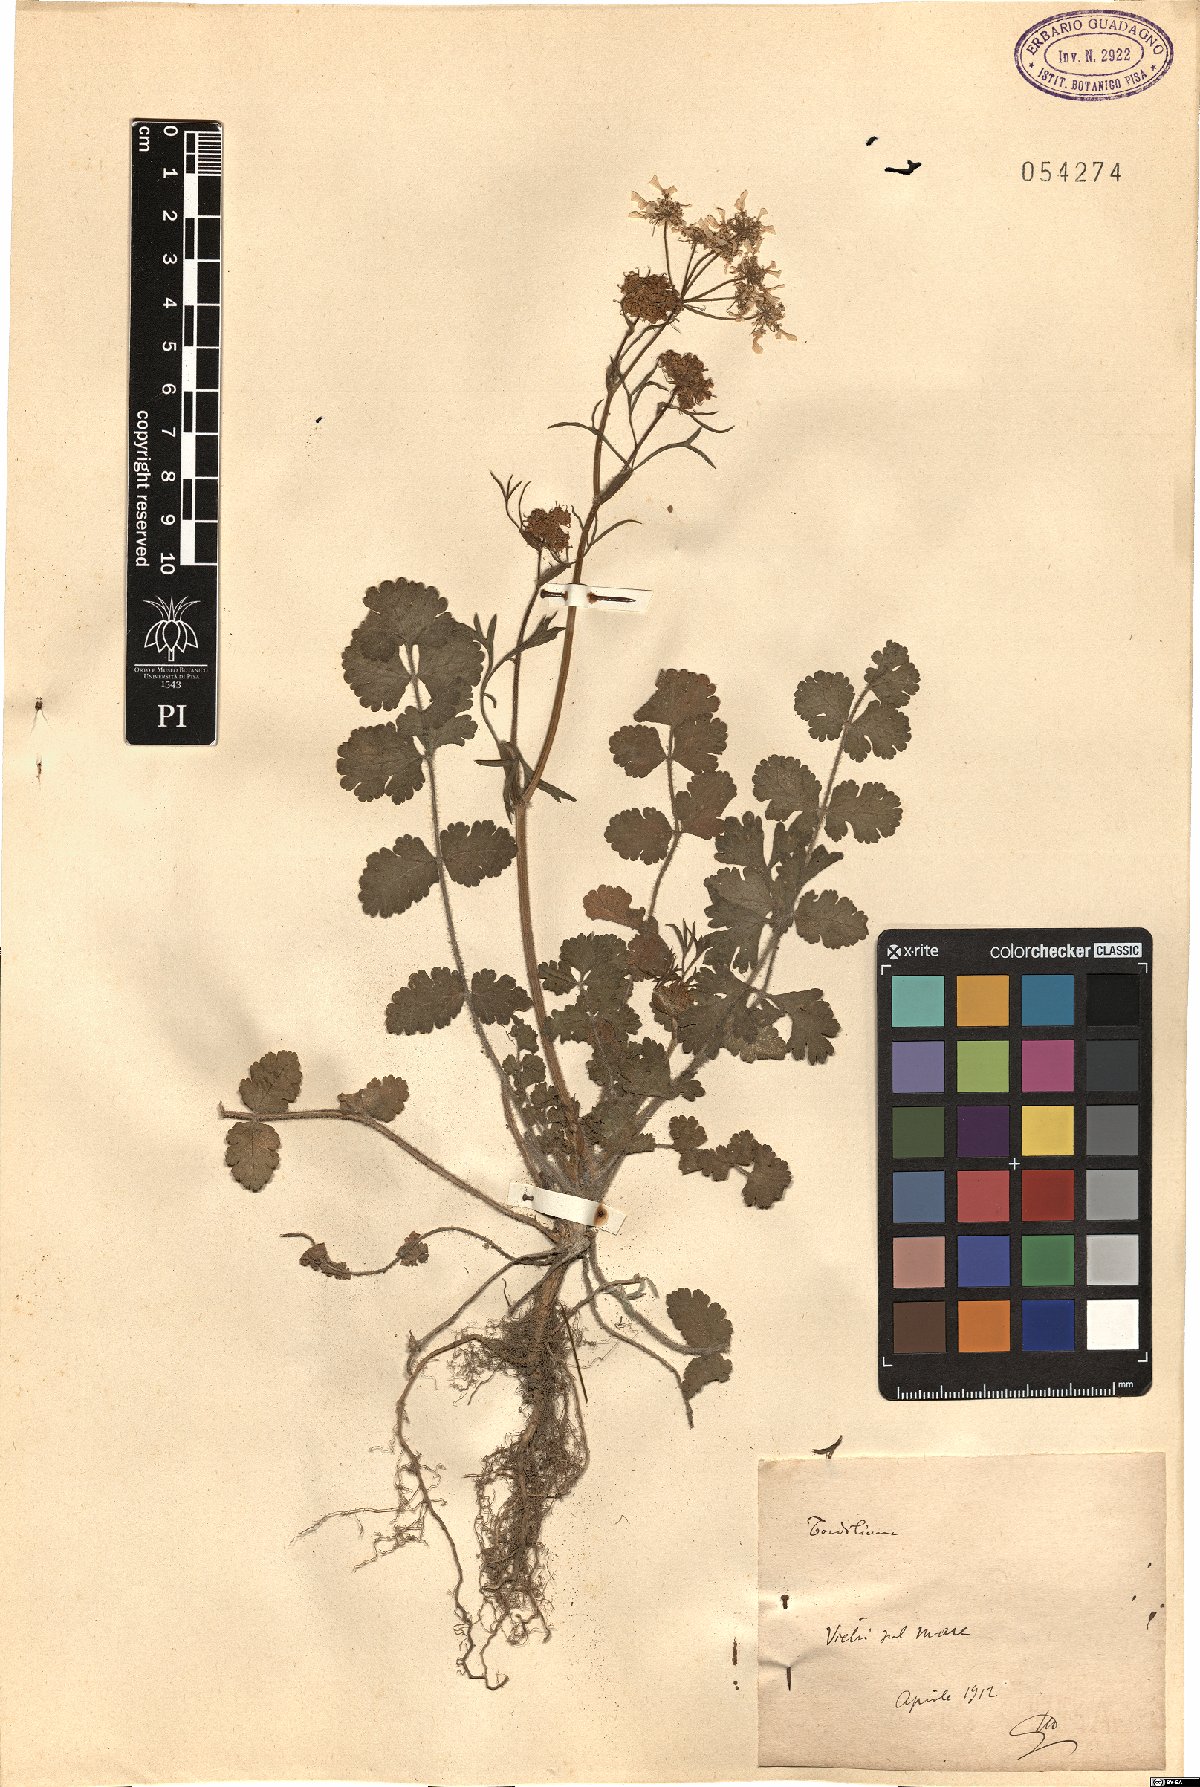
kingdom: Plantae
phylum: Tracheophyta
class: Magnoliopsida
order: Apiales
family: Apiaceae
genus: Tordylium
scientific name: Tordylium
